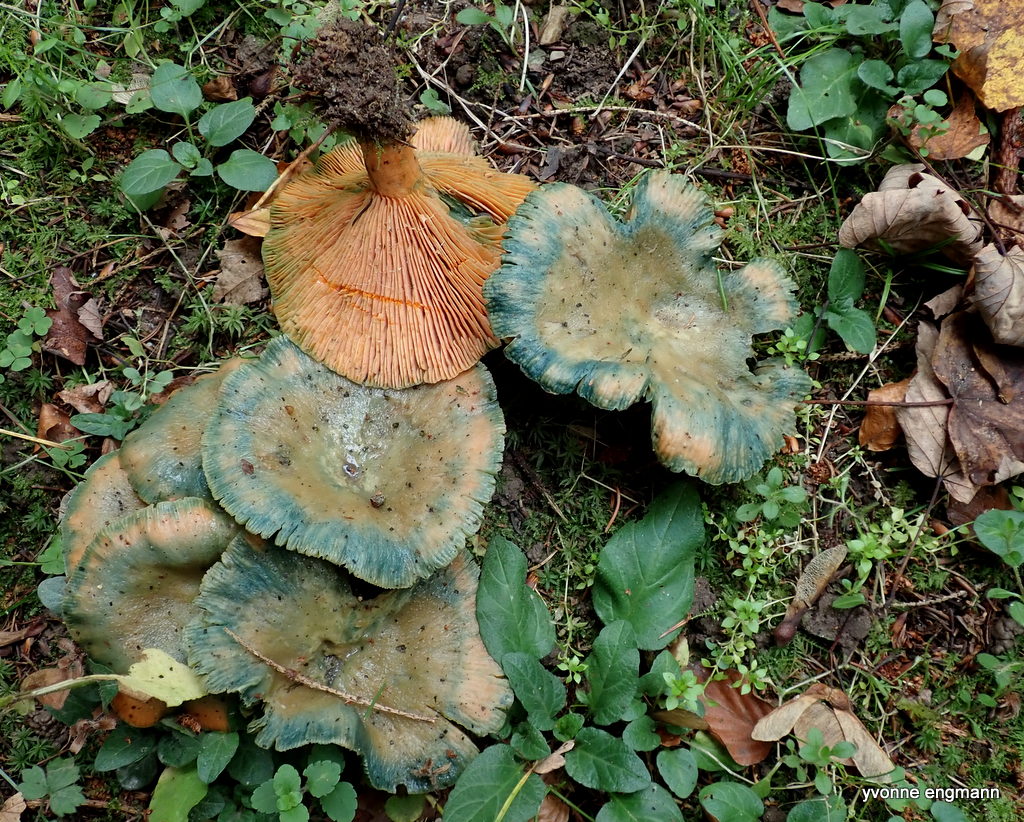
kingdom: Fungi
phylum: Basidiomycota
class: Agaricomycetes
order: Russulales
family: Russulaceae
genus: Lactarius
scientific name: Lactarius deterrimus
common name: gran-mælkehat
